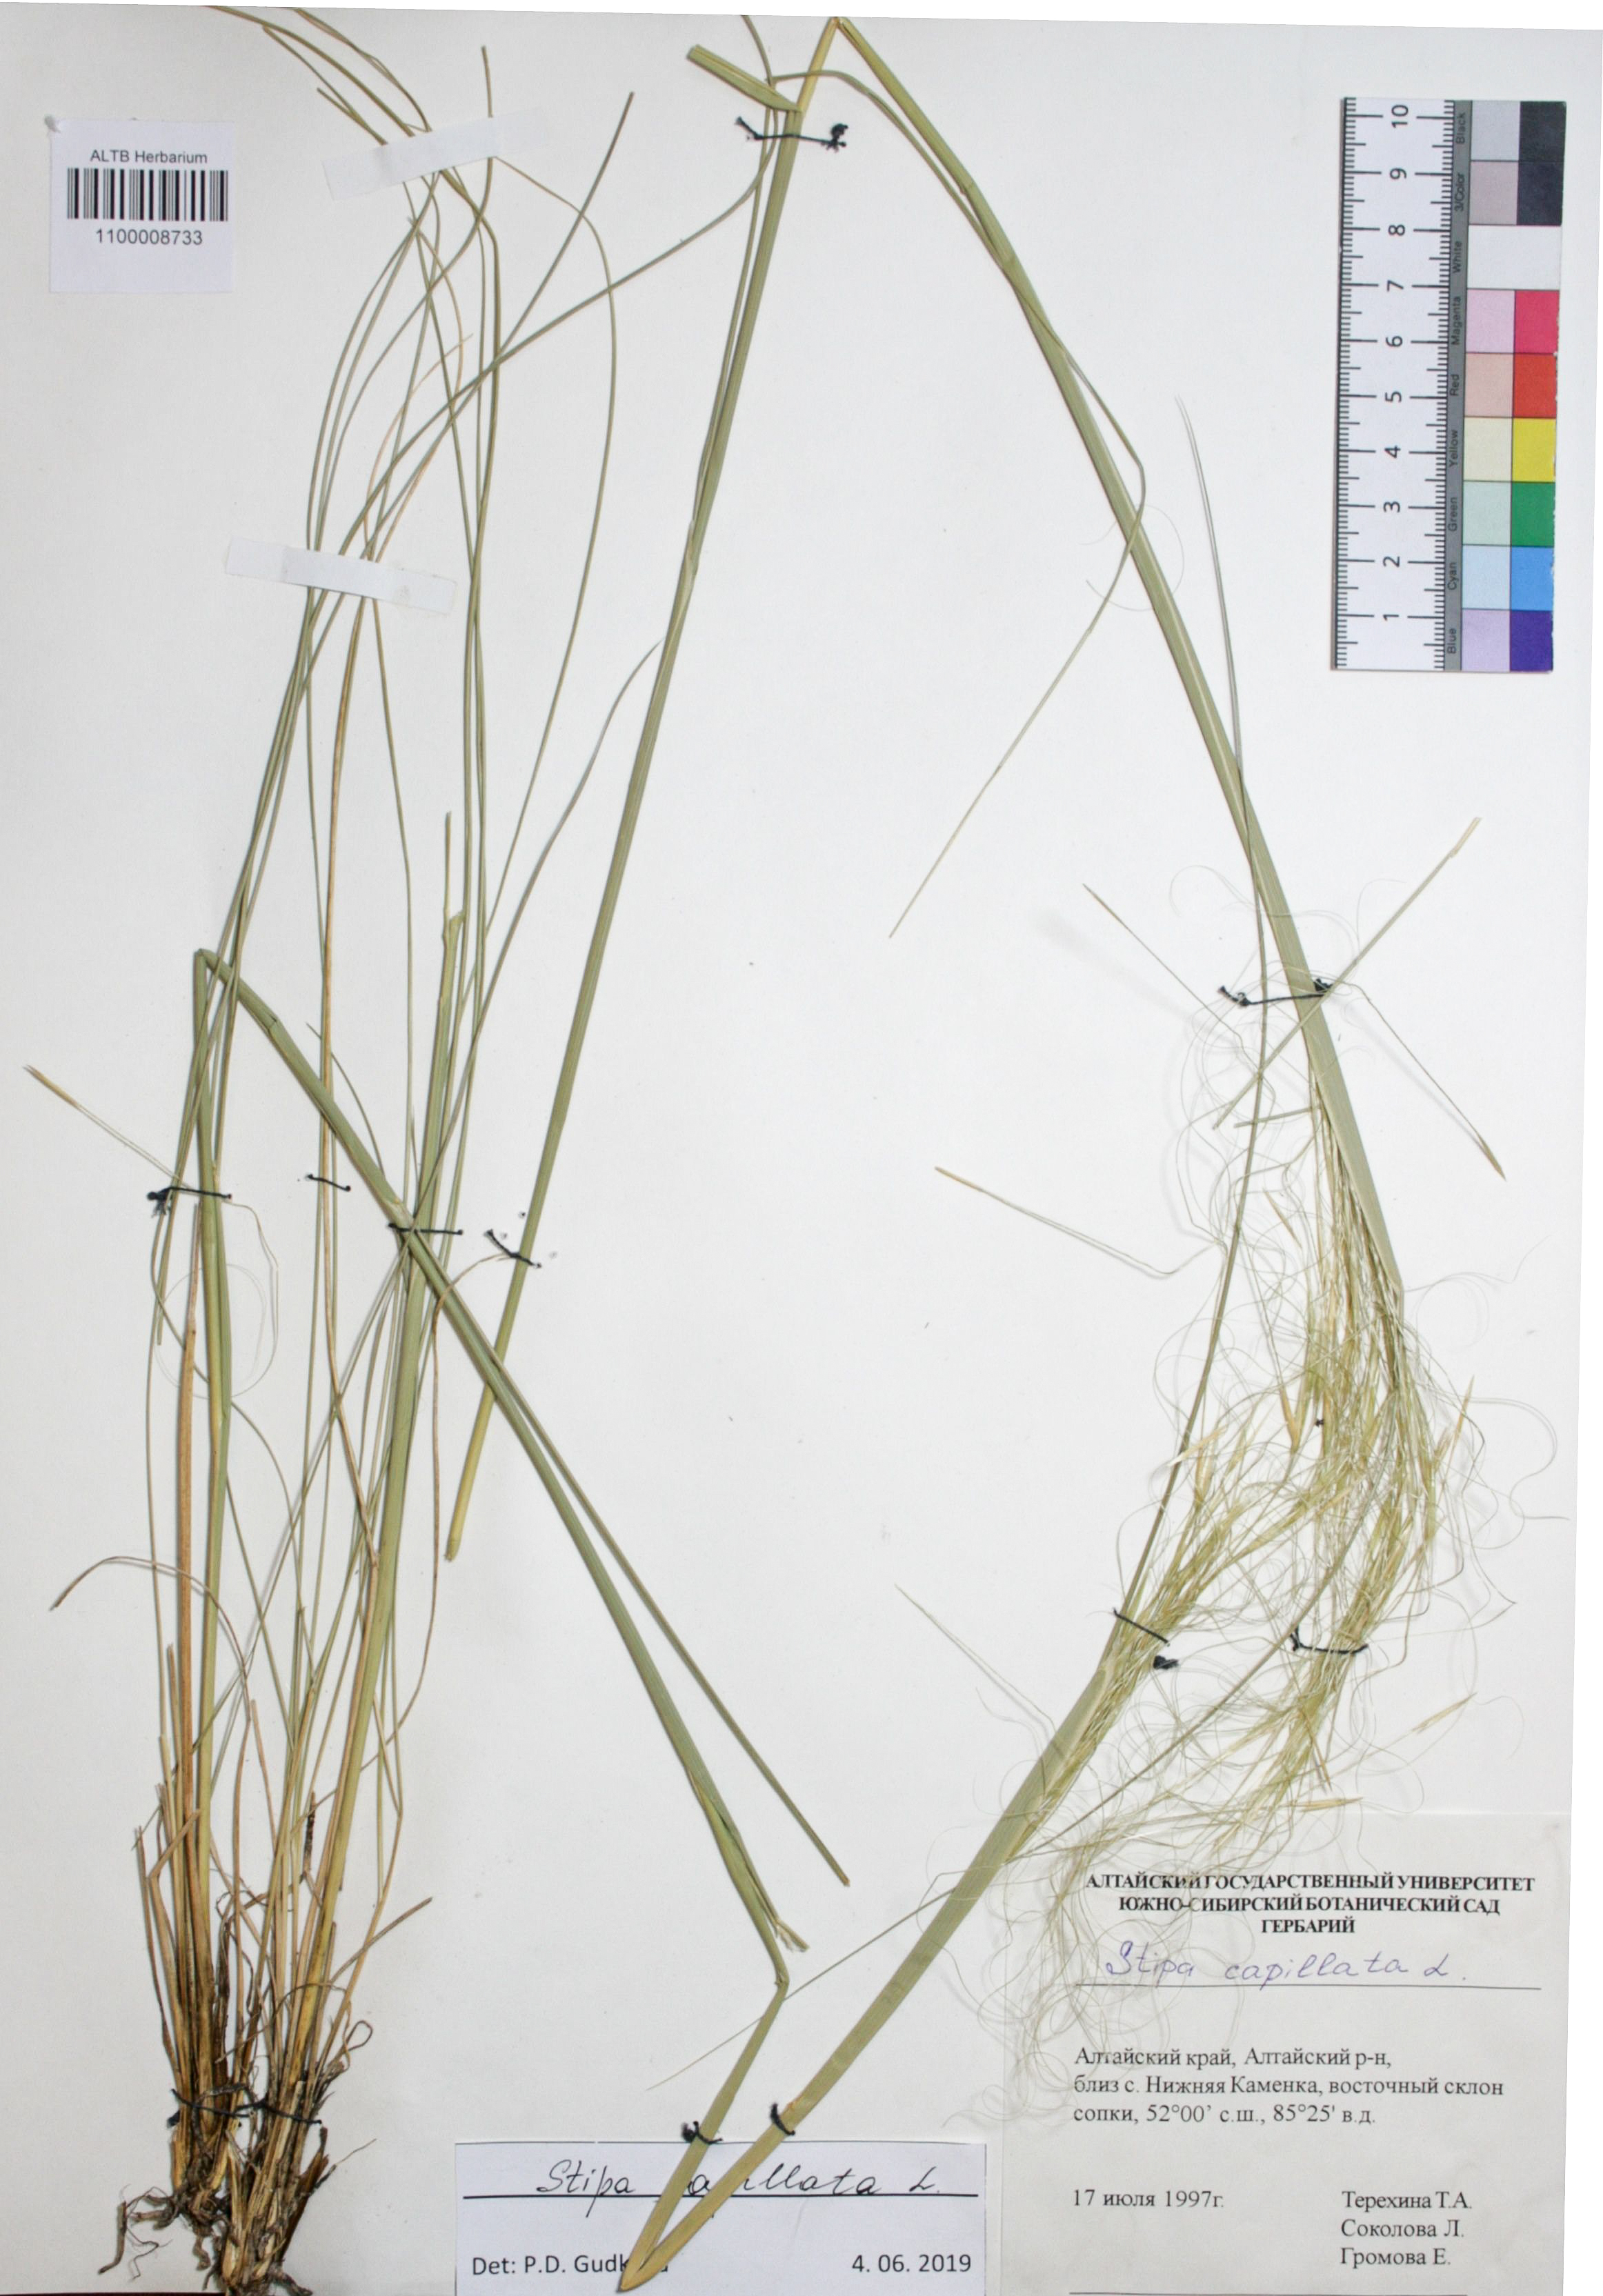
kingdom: Plantae
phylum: Tracheophyta
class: Liliopsida
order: Poales
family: Poaceae
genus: Stipa
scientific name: Stipa capillata
